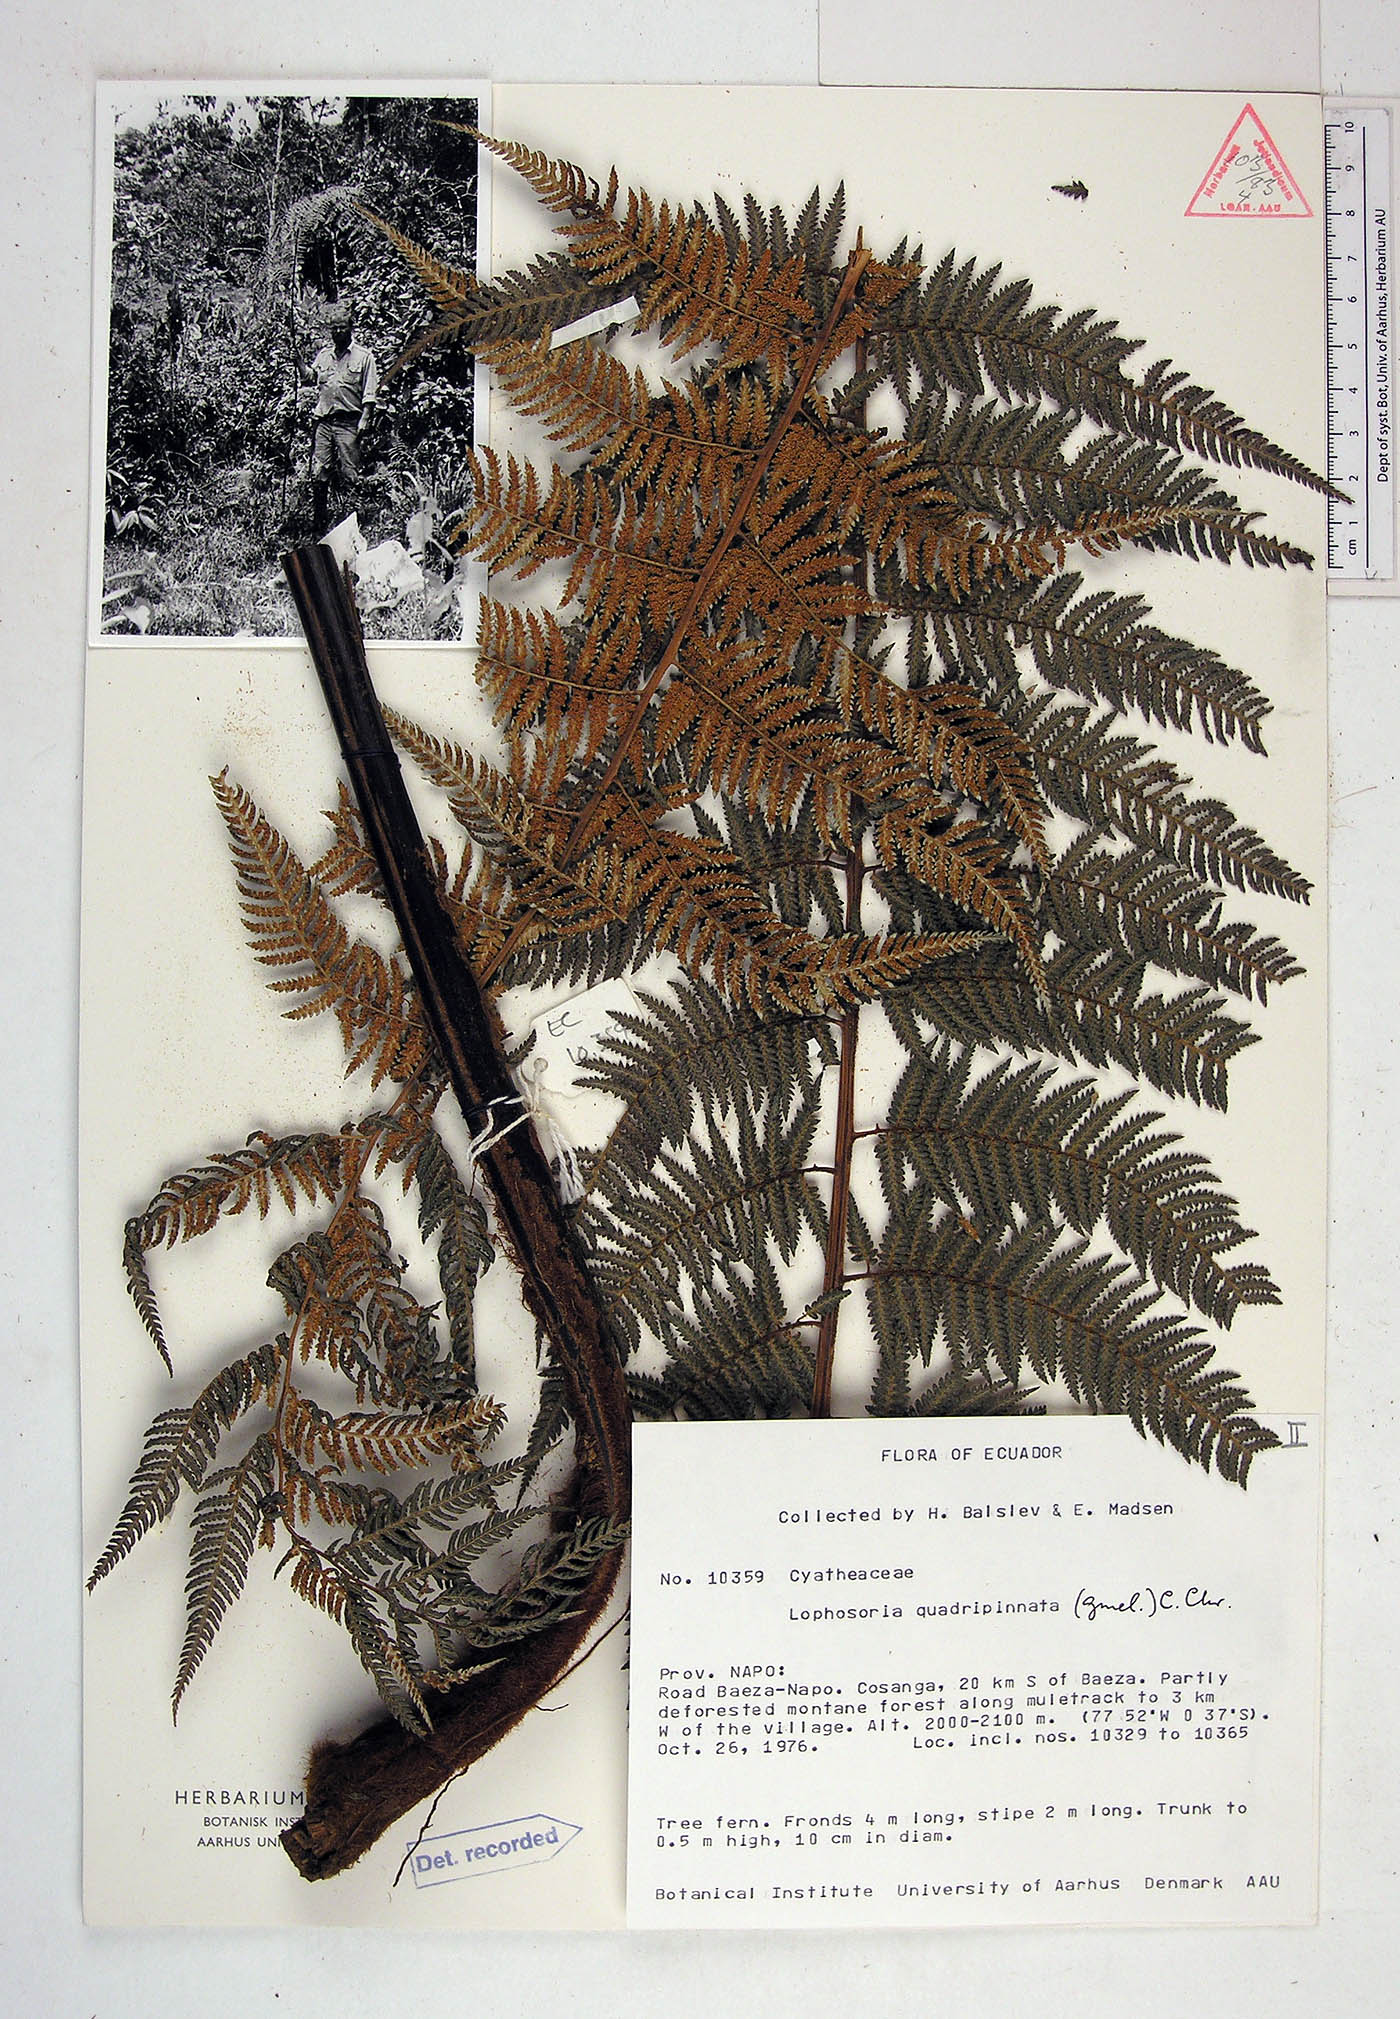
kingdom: Plantae
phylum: Tracheophyta
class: Polypodiopsida
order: Cyatheales
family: Dicksoniaceae
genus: Lophosoria
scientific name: Lophosoria quadripinnata
